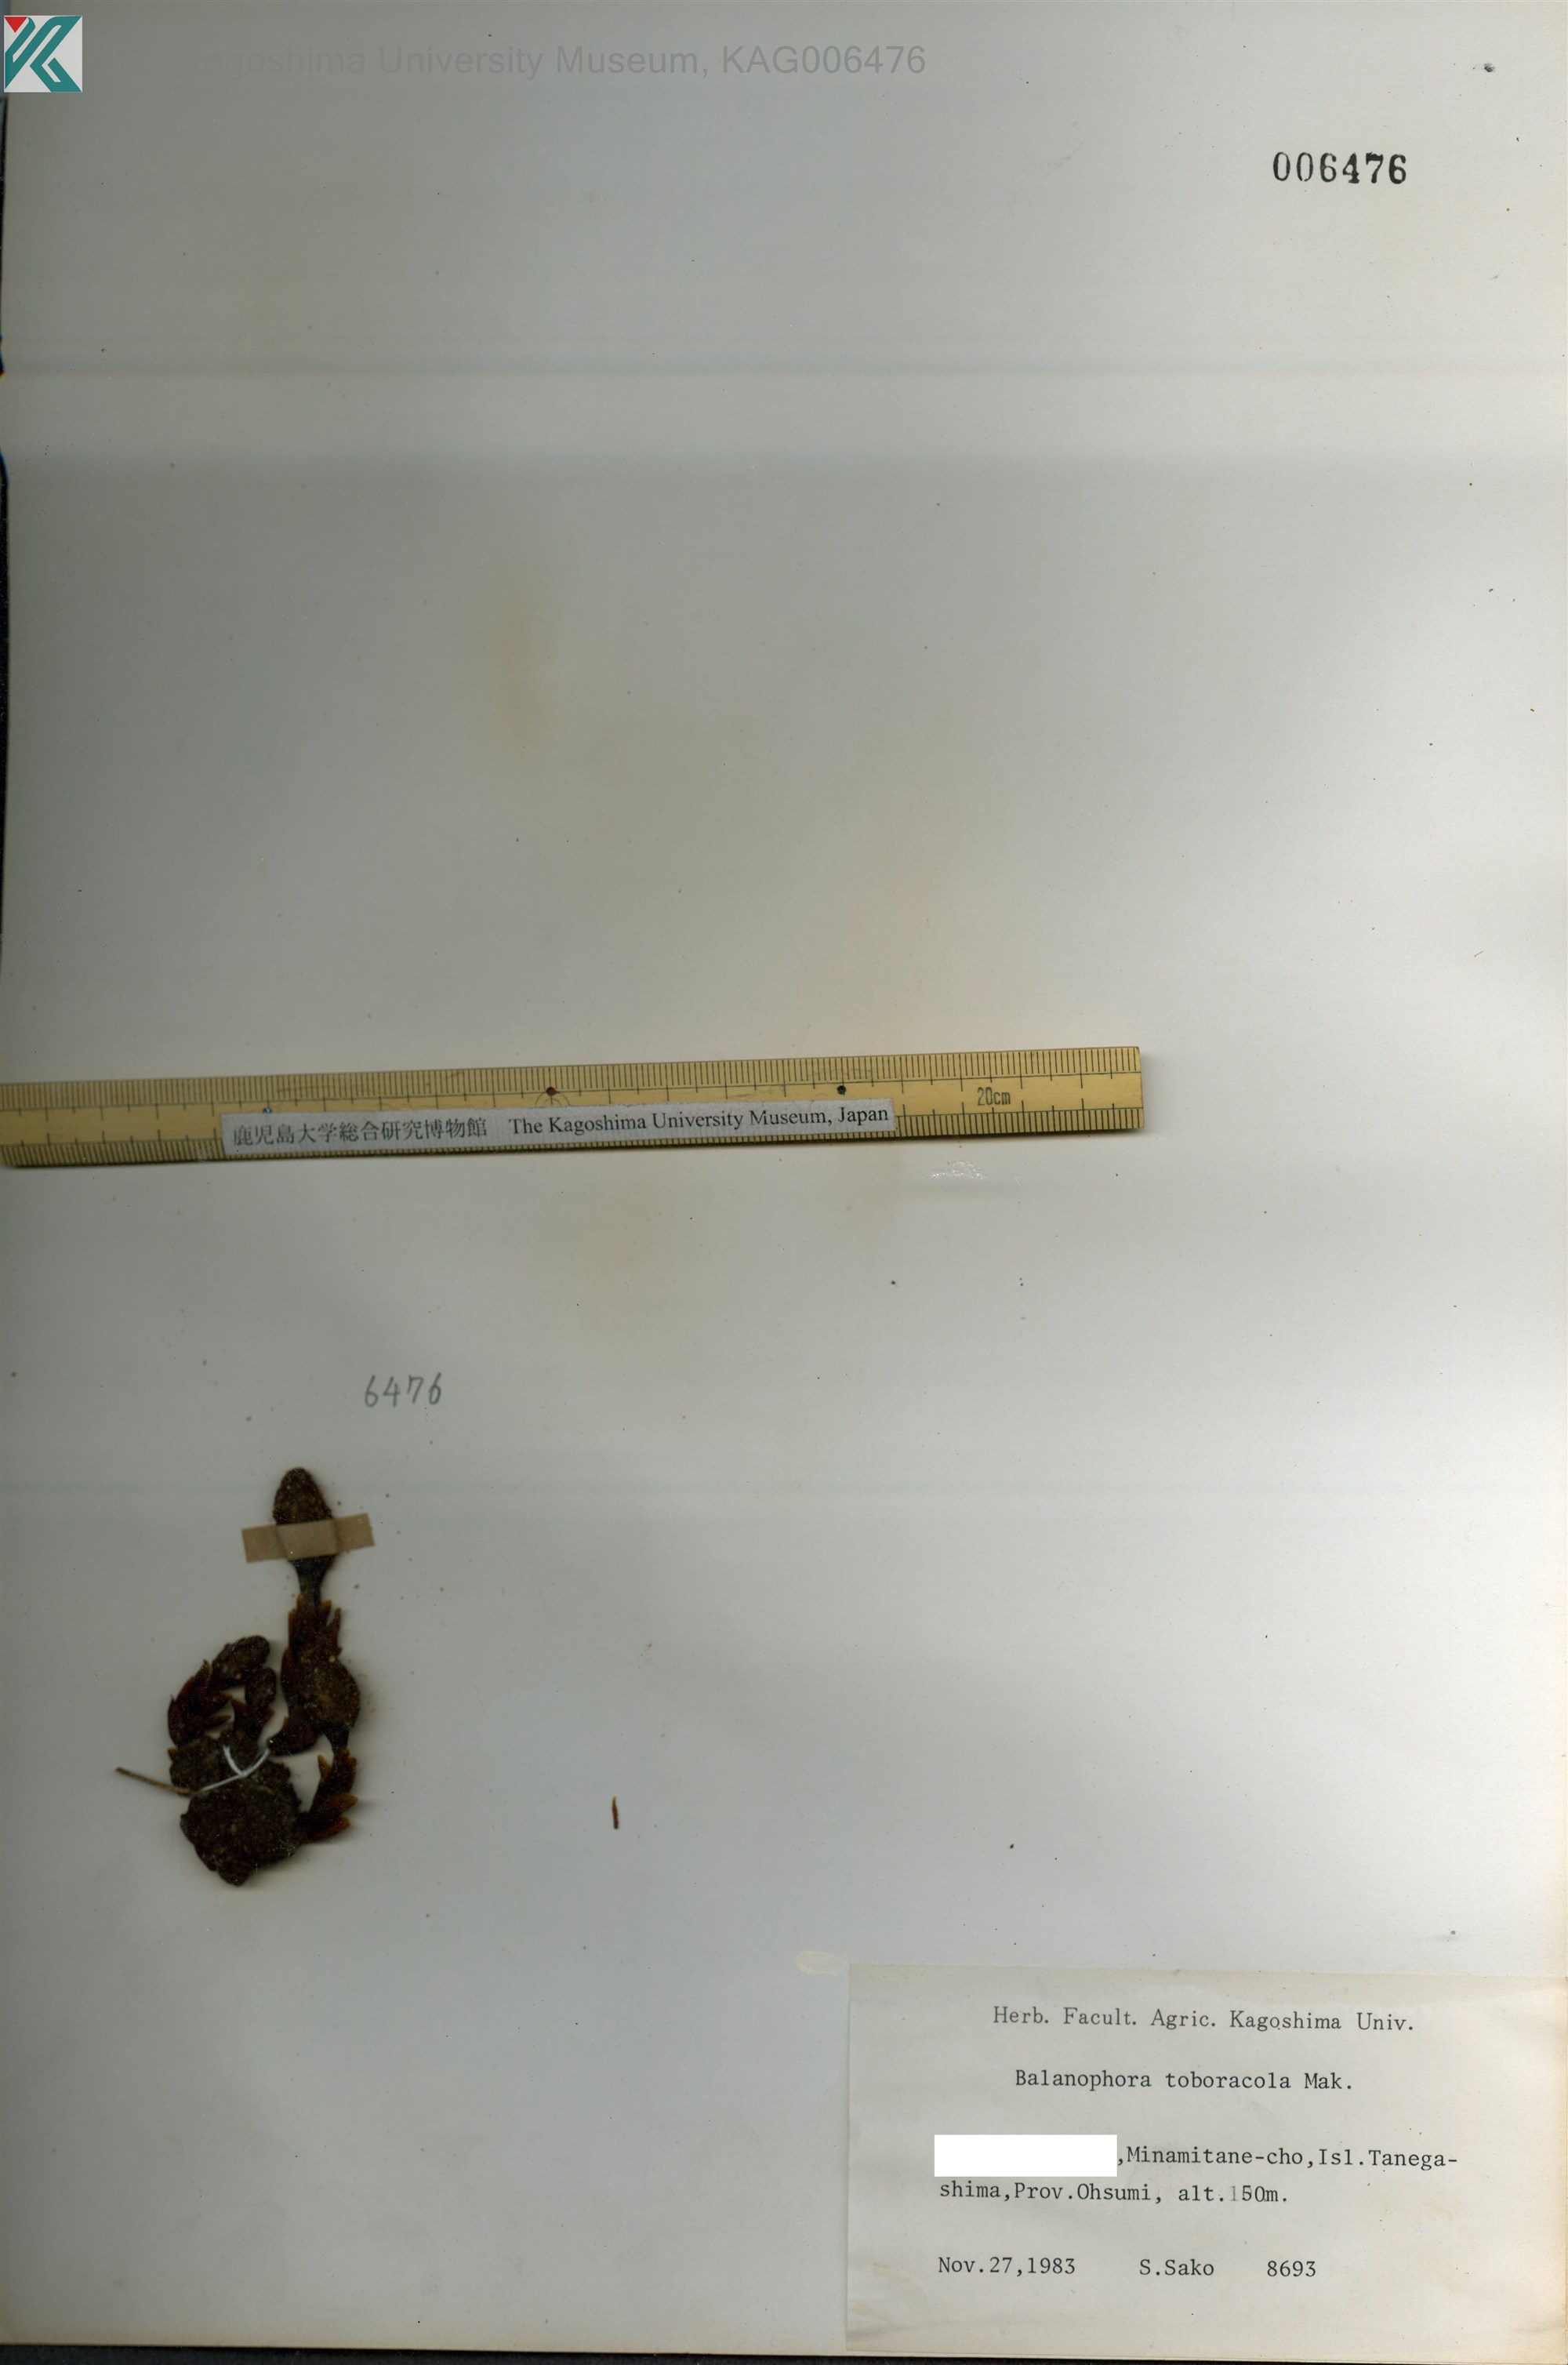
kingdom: Plantae
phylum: Tracheophyta
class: Magnoliopsida
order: Santalales
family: Balanophoraceae
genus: Balanophora
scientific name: Balanophora tobiracola
